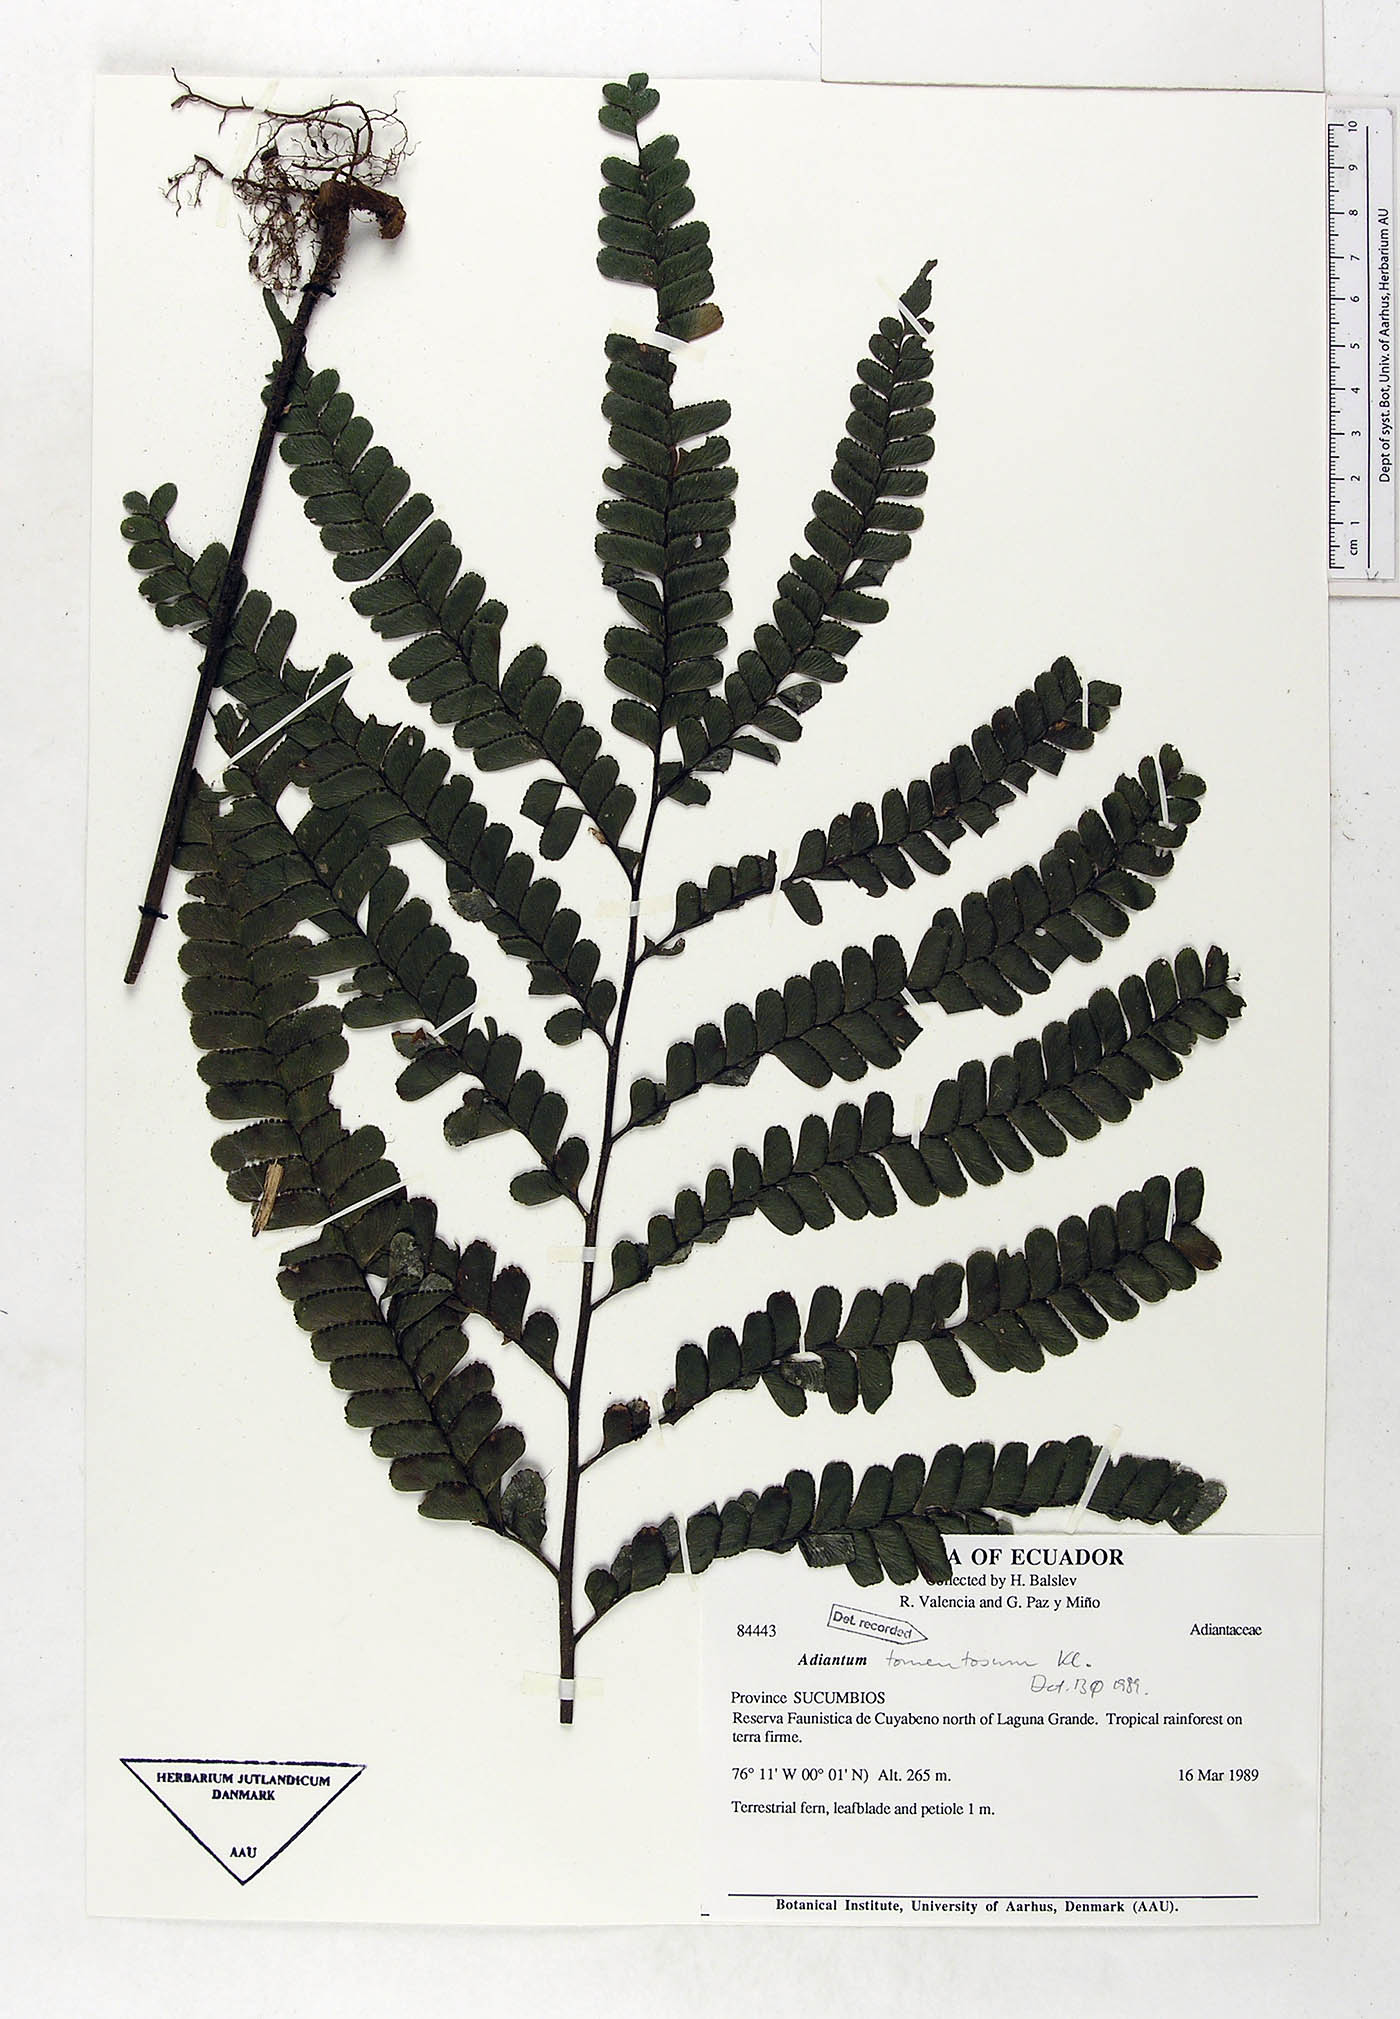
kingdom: Plantae
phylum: Tracheophyta
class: Polypodiopsida
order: Polypodiales
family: Pteridaceae
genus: Adiantum
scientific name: Adiantum tomentosum
